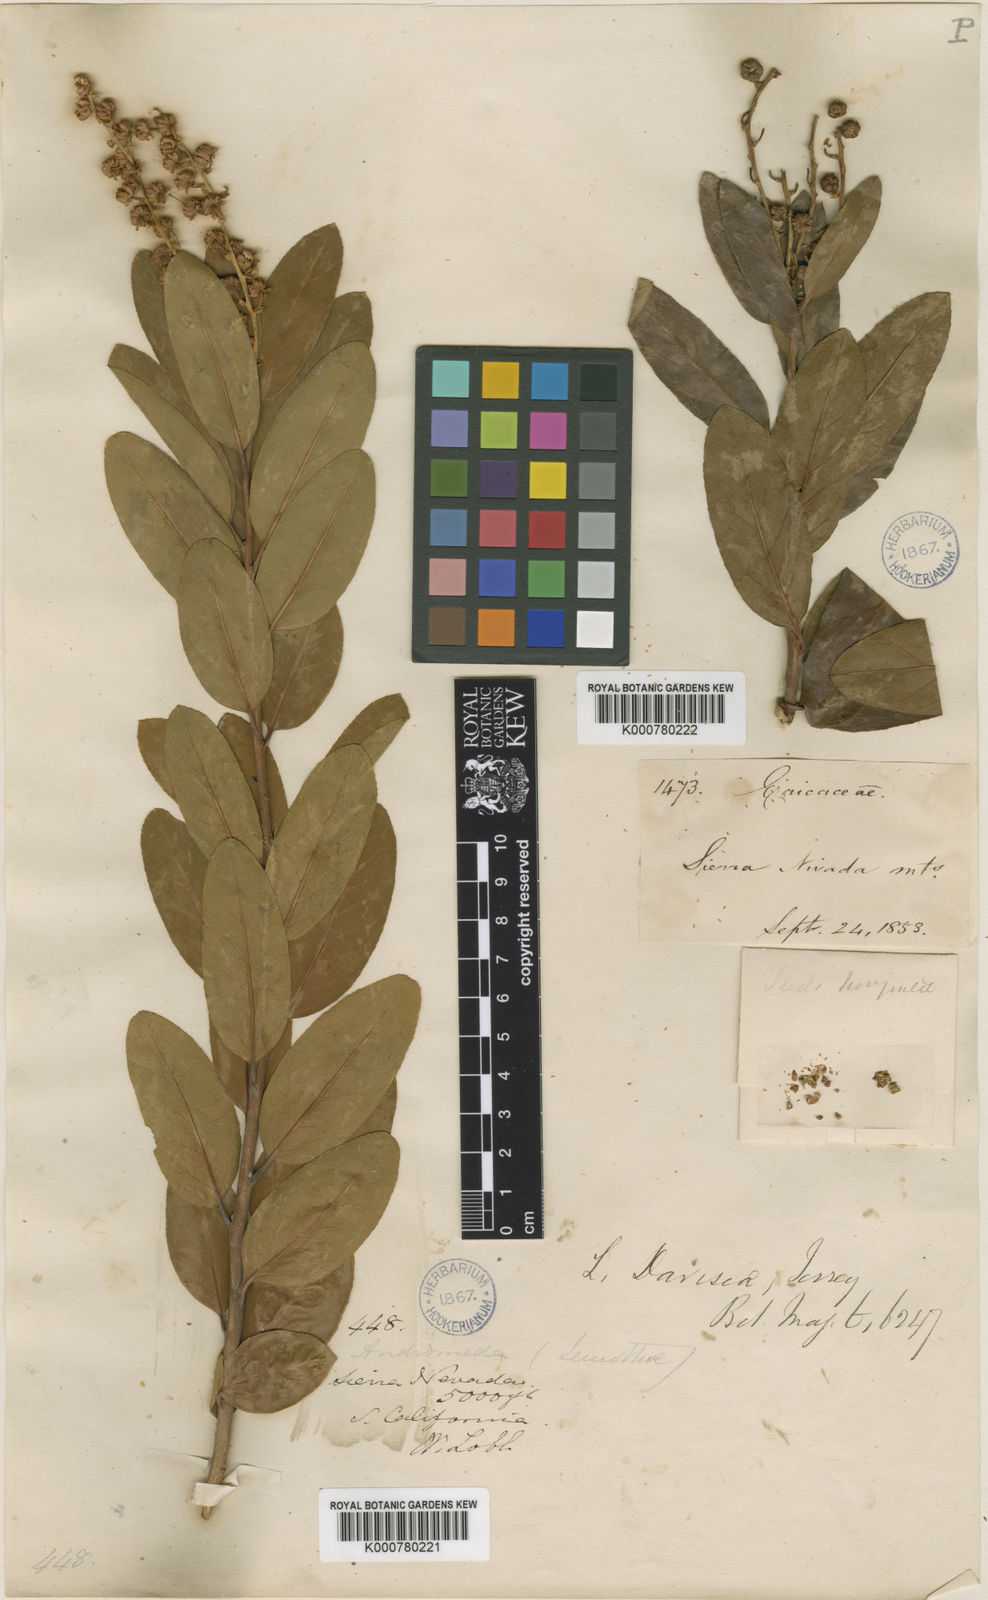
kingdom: Plantae
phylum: Tracheophyta
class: Magnoliopsida
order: Ericales
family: Ericaceae
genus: Leucothoe
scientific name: Leucothoe
